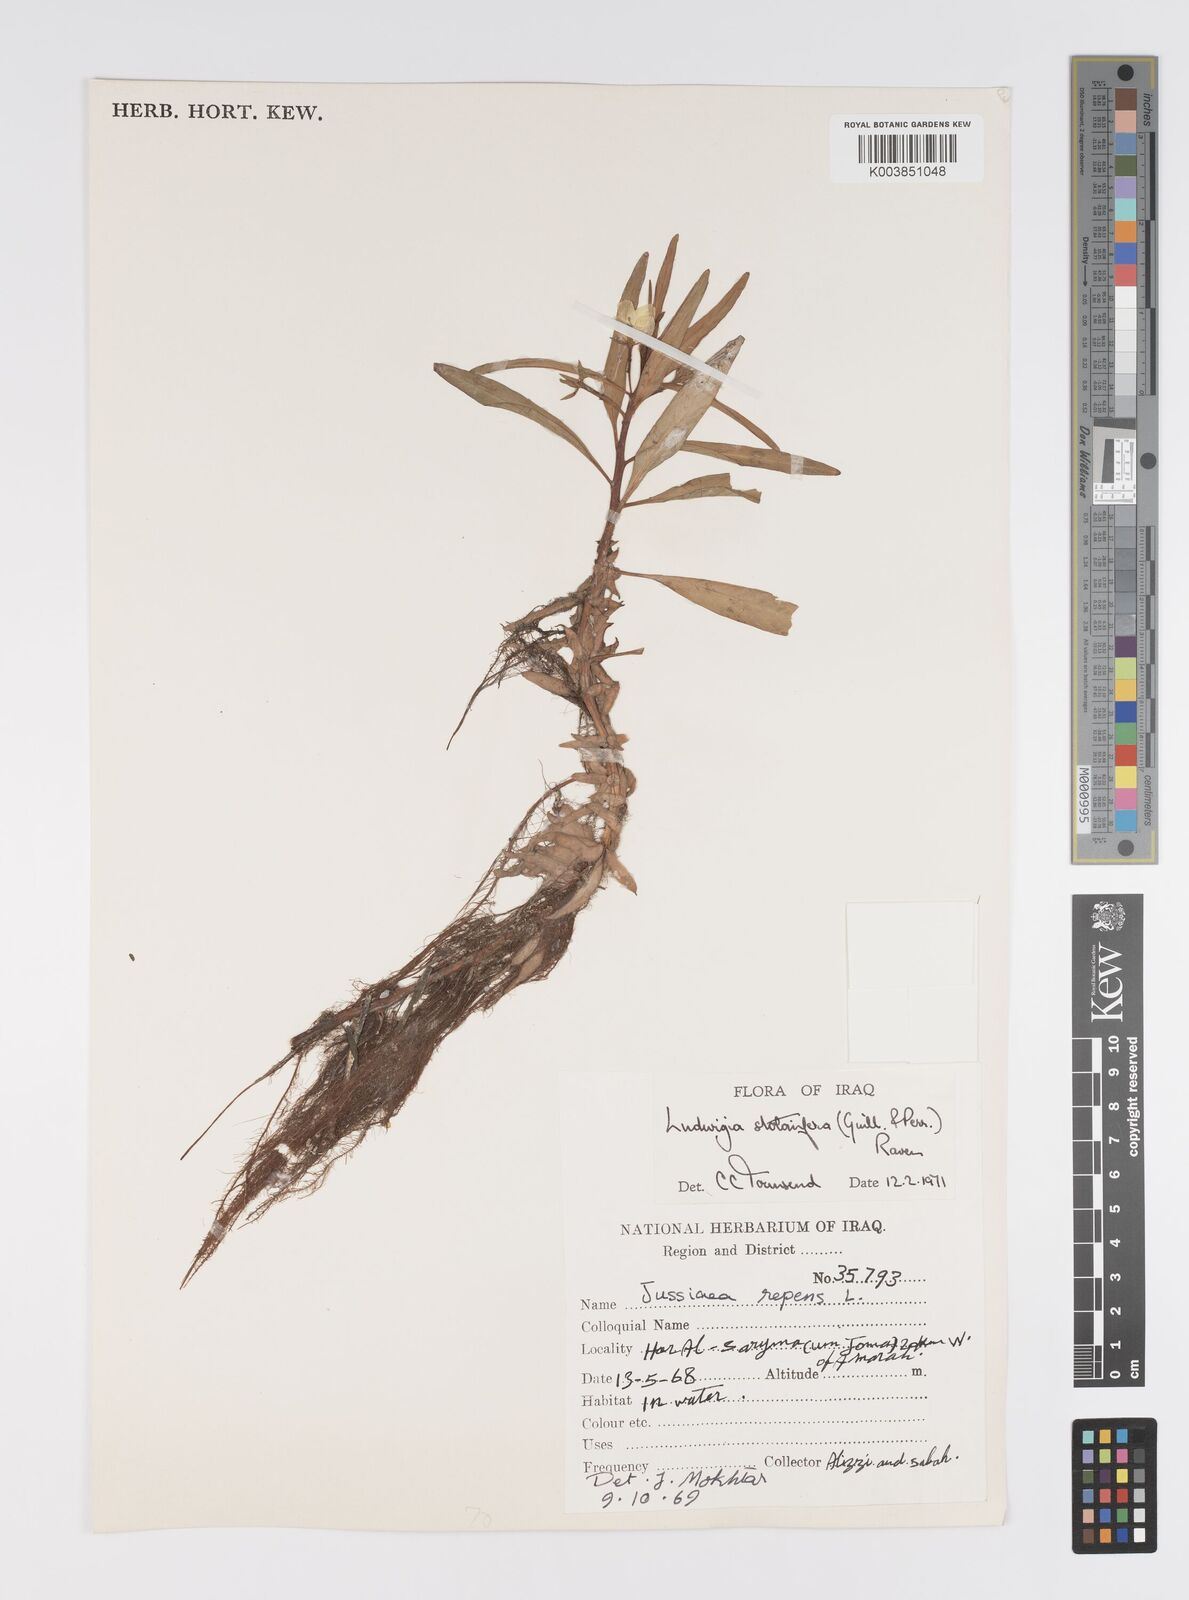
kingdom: Plantae
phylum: Tracheophyta
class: Magnoliopsida
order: Myrtales
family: Onagraceae
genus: Ludwigia
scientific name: Ludwigia adscendens
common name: Creeping water primrose
